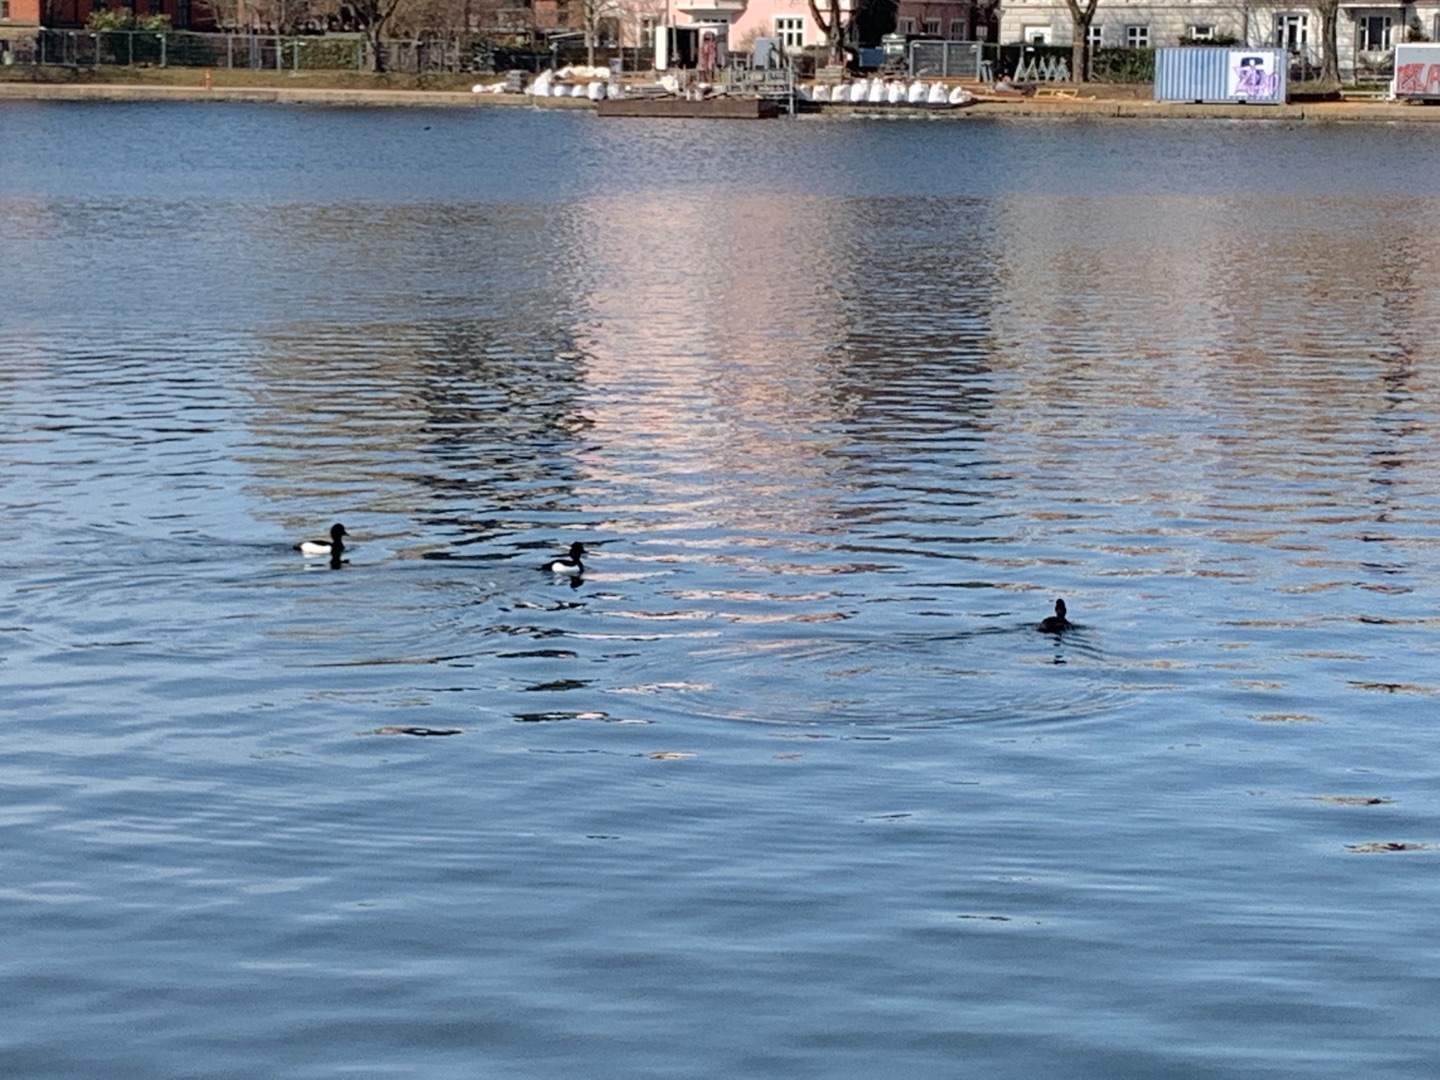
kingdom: Animalia
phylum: Chordata
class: Aves
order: Anseriformes
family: Anatidae
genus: Aythya
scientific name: Aythya fuligula
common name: Troldand
